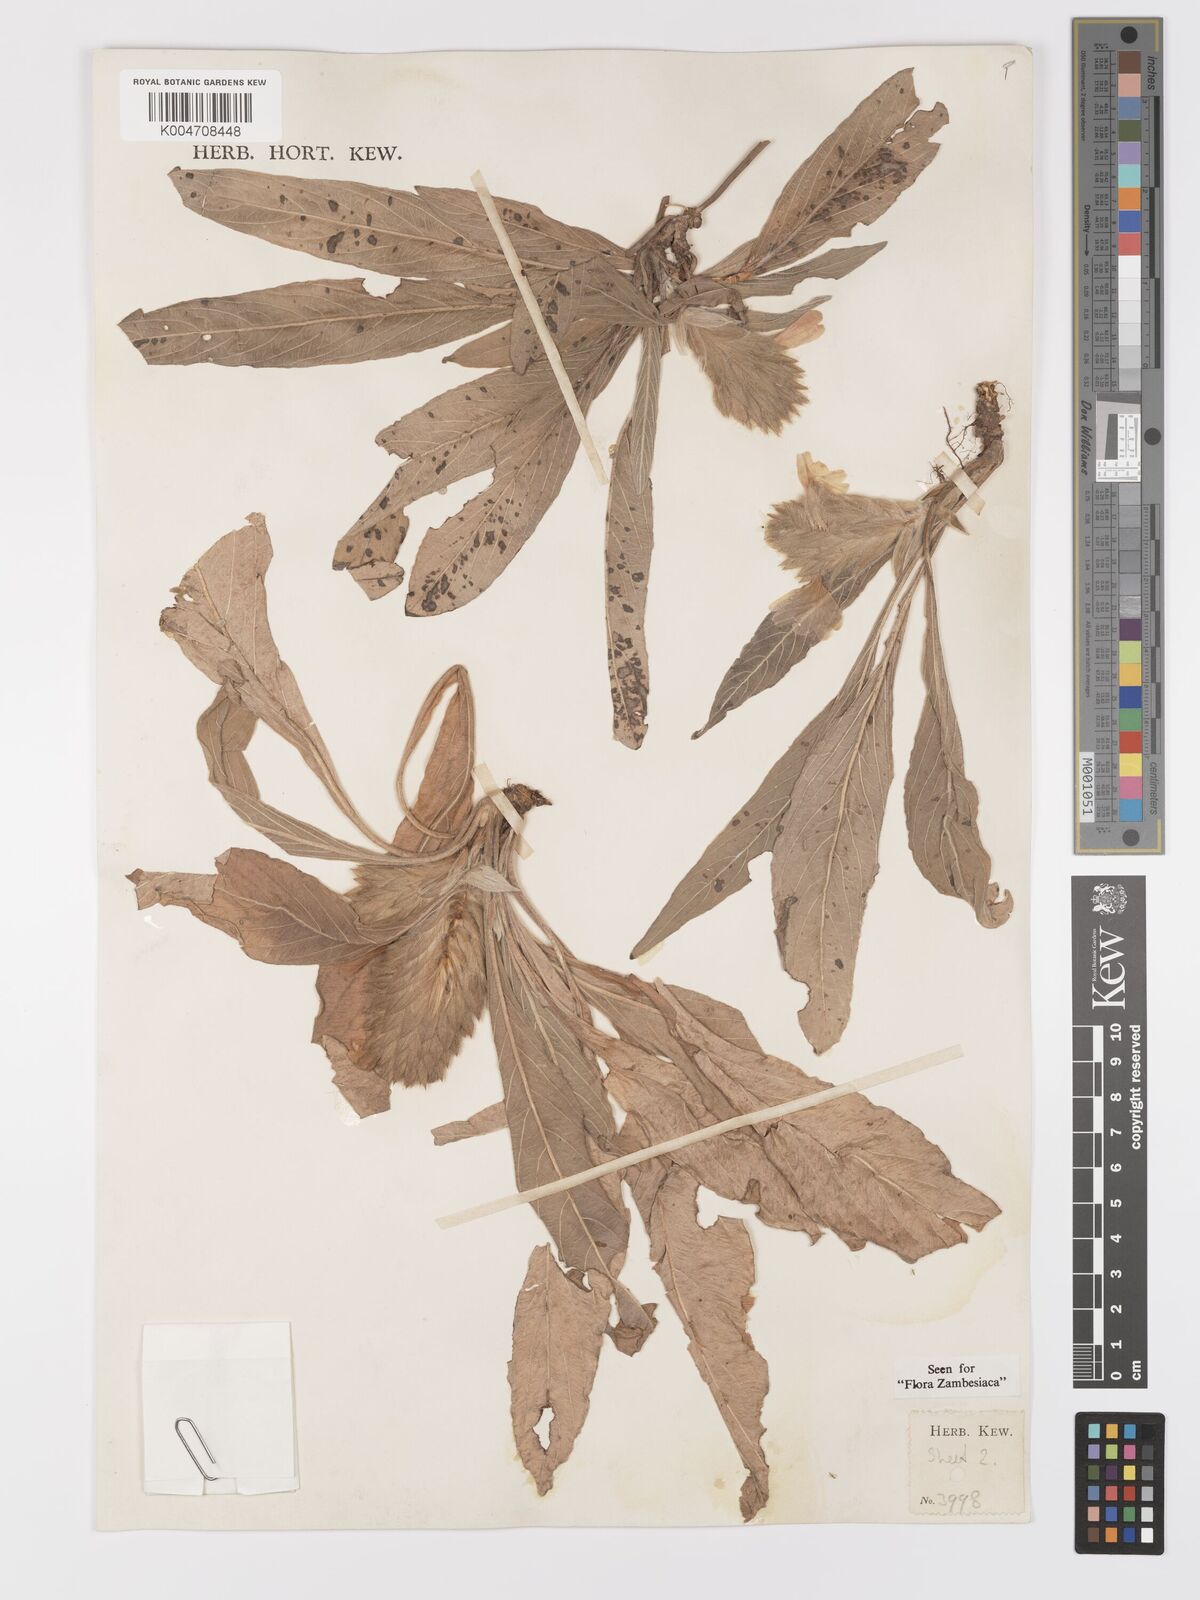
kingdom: Plantae
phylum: Tracheophyta
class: Magnoliopsida
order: Lamiales
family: Acanthaceae
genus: Crossandra
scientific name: Crossandra sulphurea
